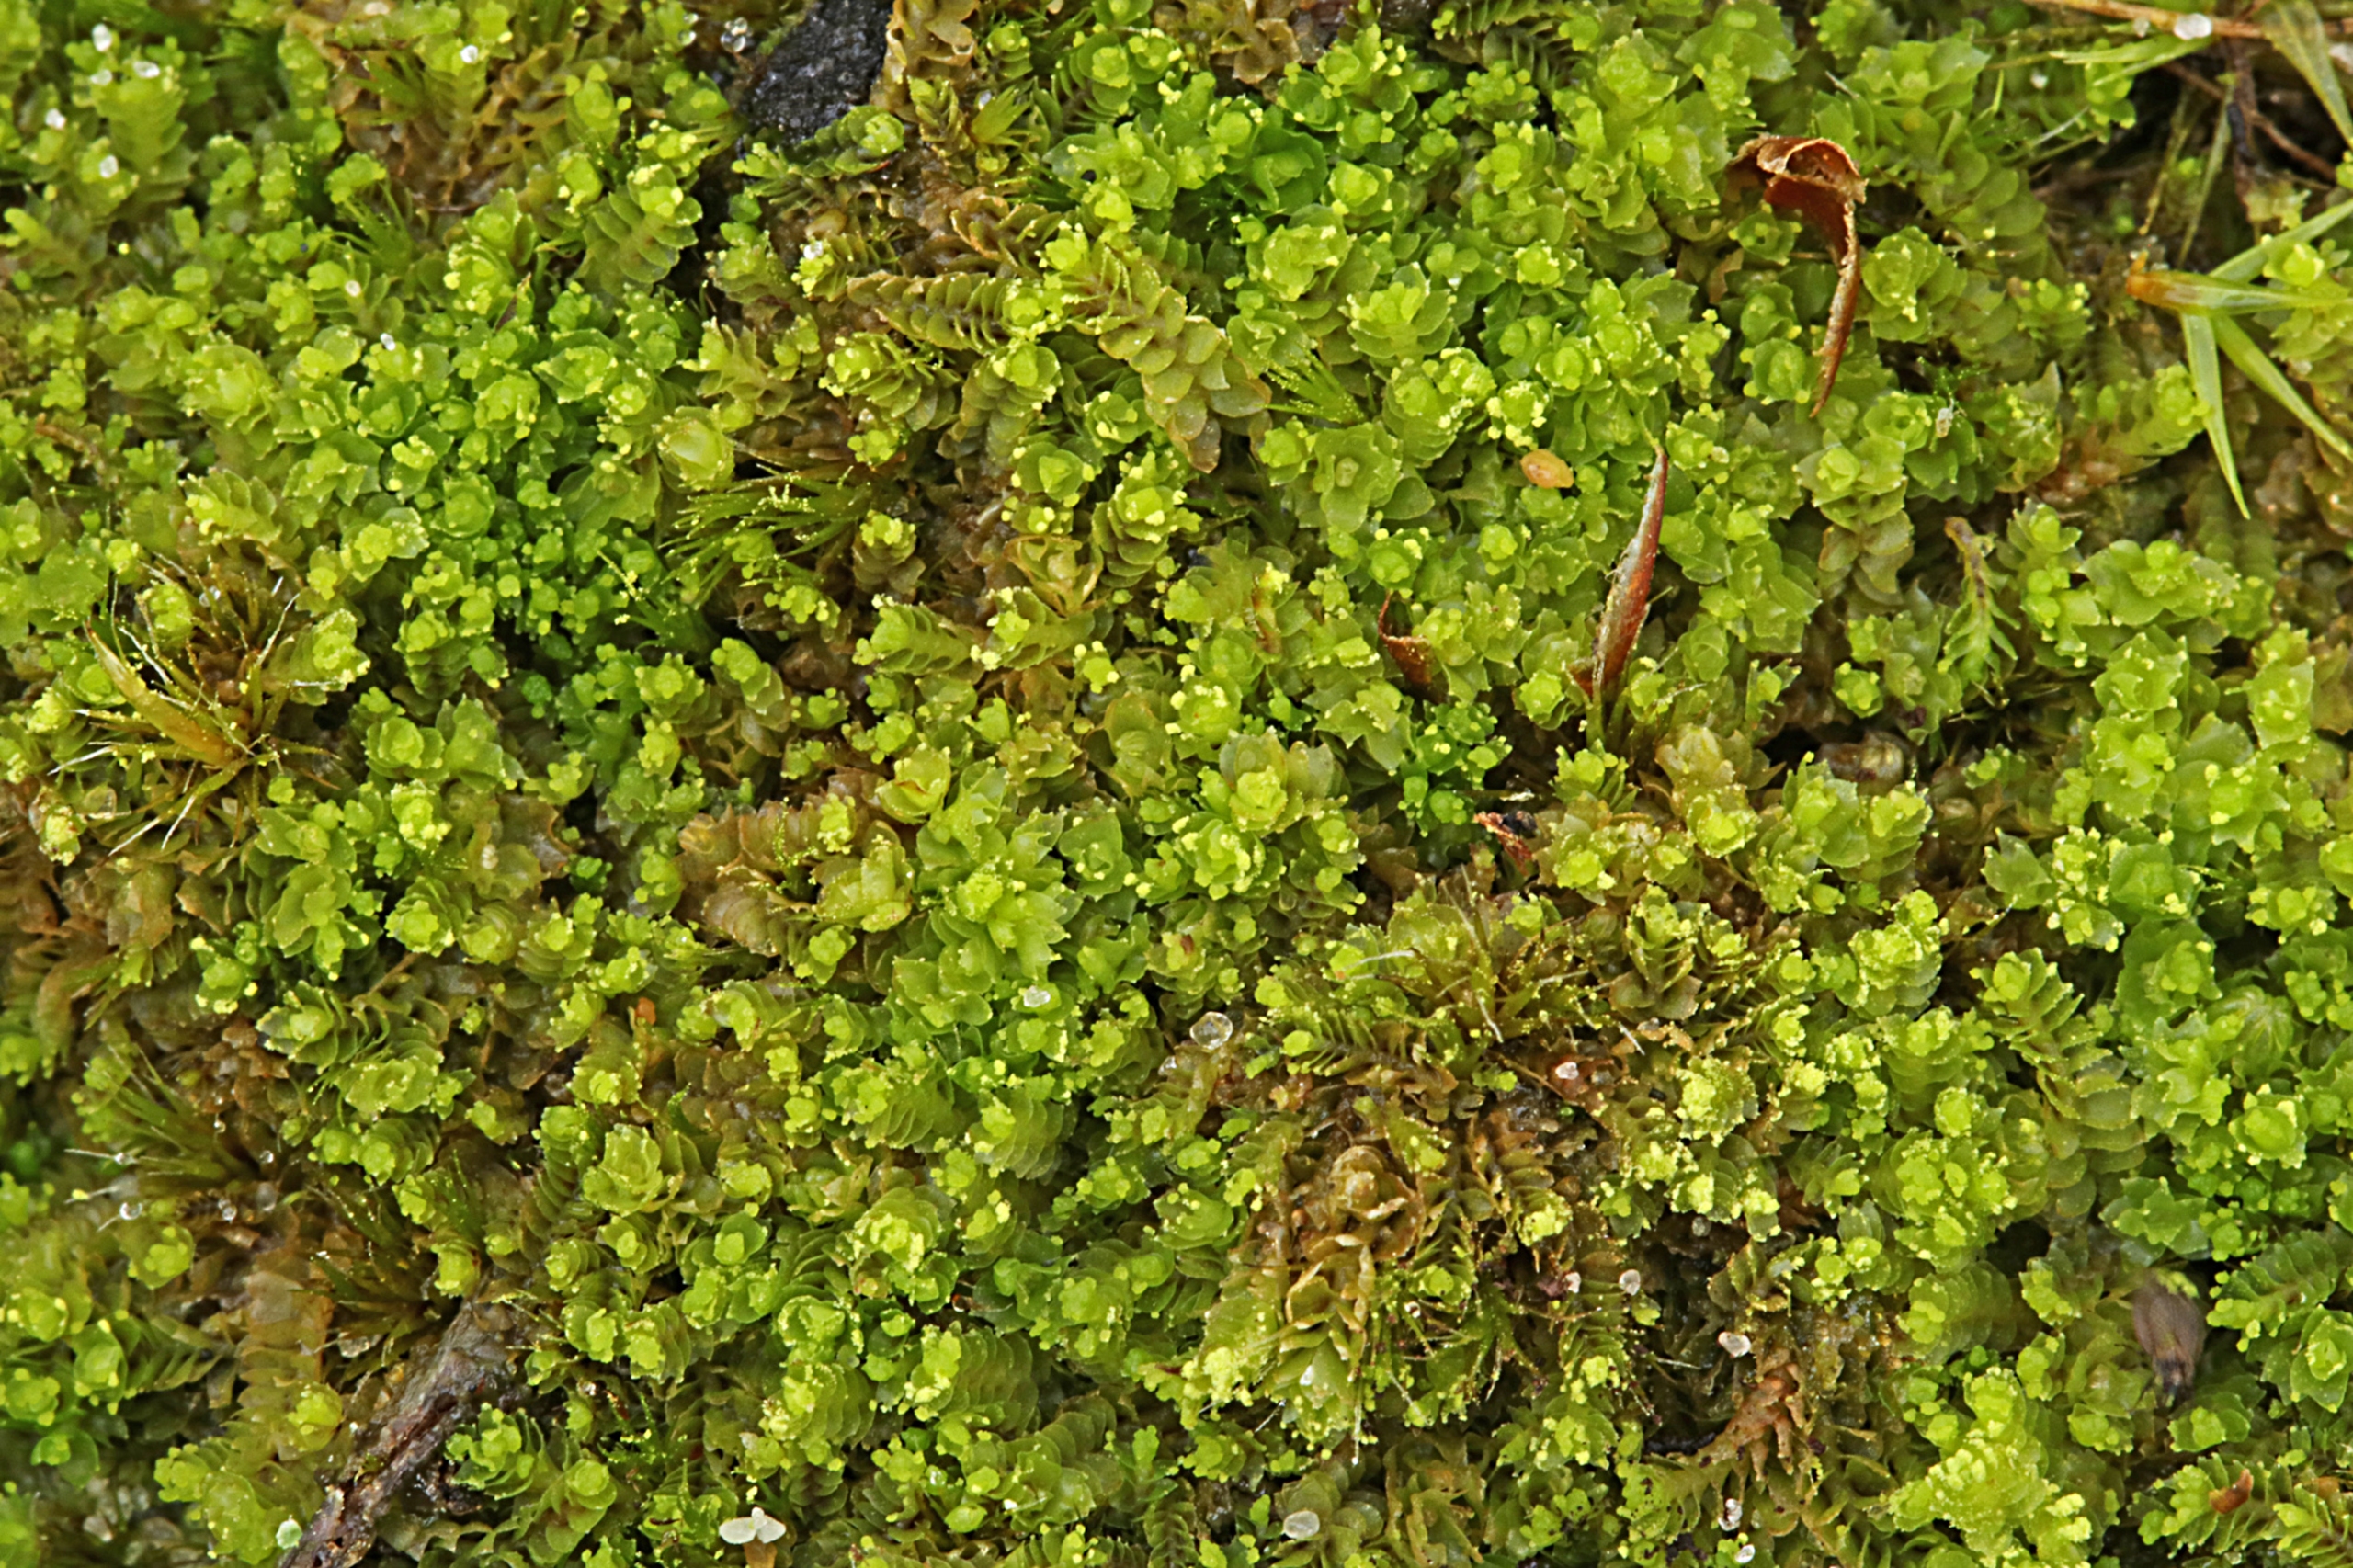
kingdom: Plantae
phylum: Marchantiophyta
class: Jungermanniopsida
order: Jungermanniales
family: Lophoziaceae
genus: Lophozia
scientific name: Lophozia ventricosa
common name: Grønkornet foldbæger
